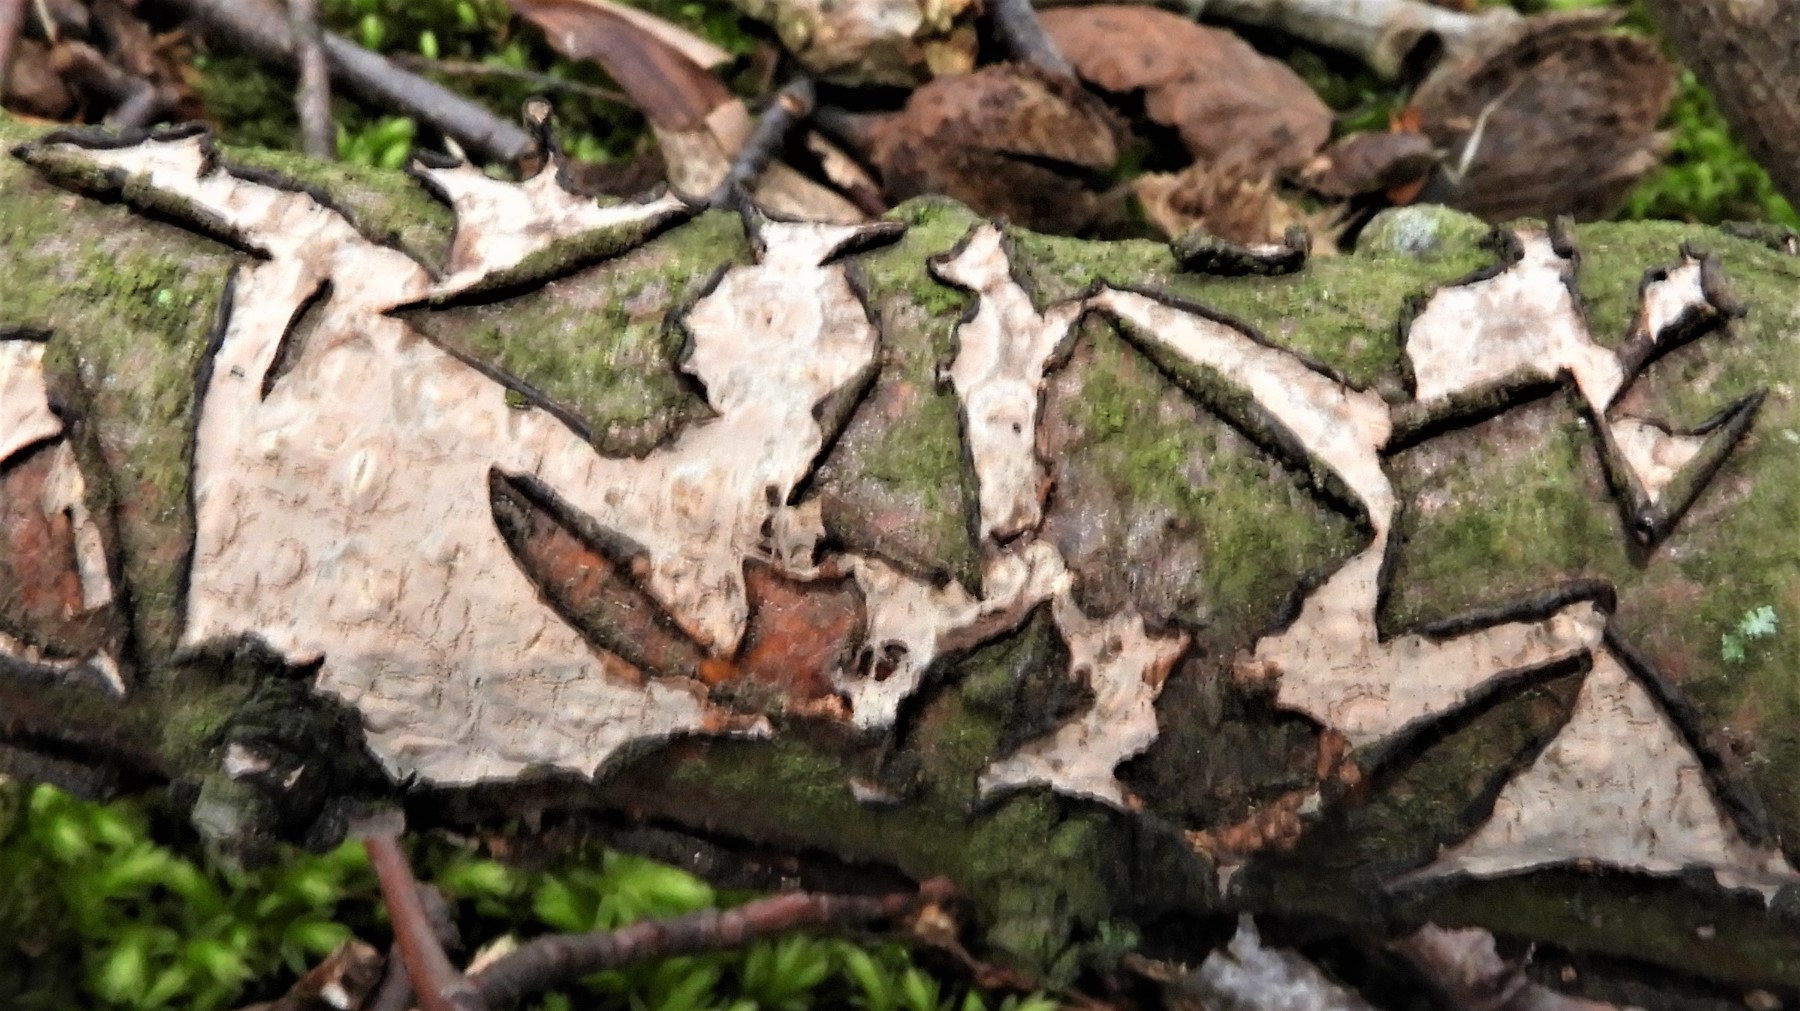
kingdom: Fungi
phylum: Basidiomycota
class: Agaricomycetes
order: Russulales
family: Peniophoraceae
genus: Peniophora
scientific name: Peniophora quercina
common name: ege-voksskind
